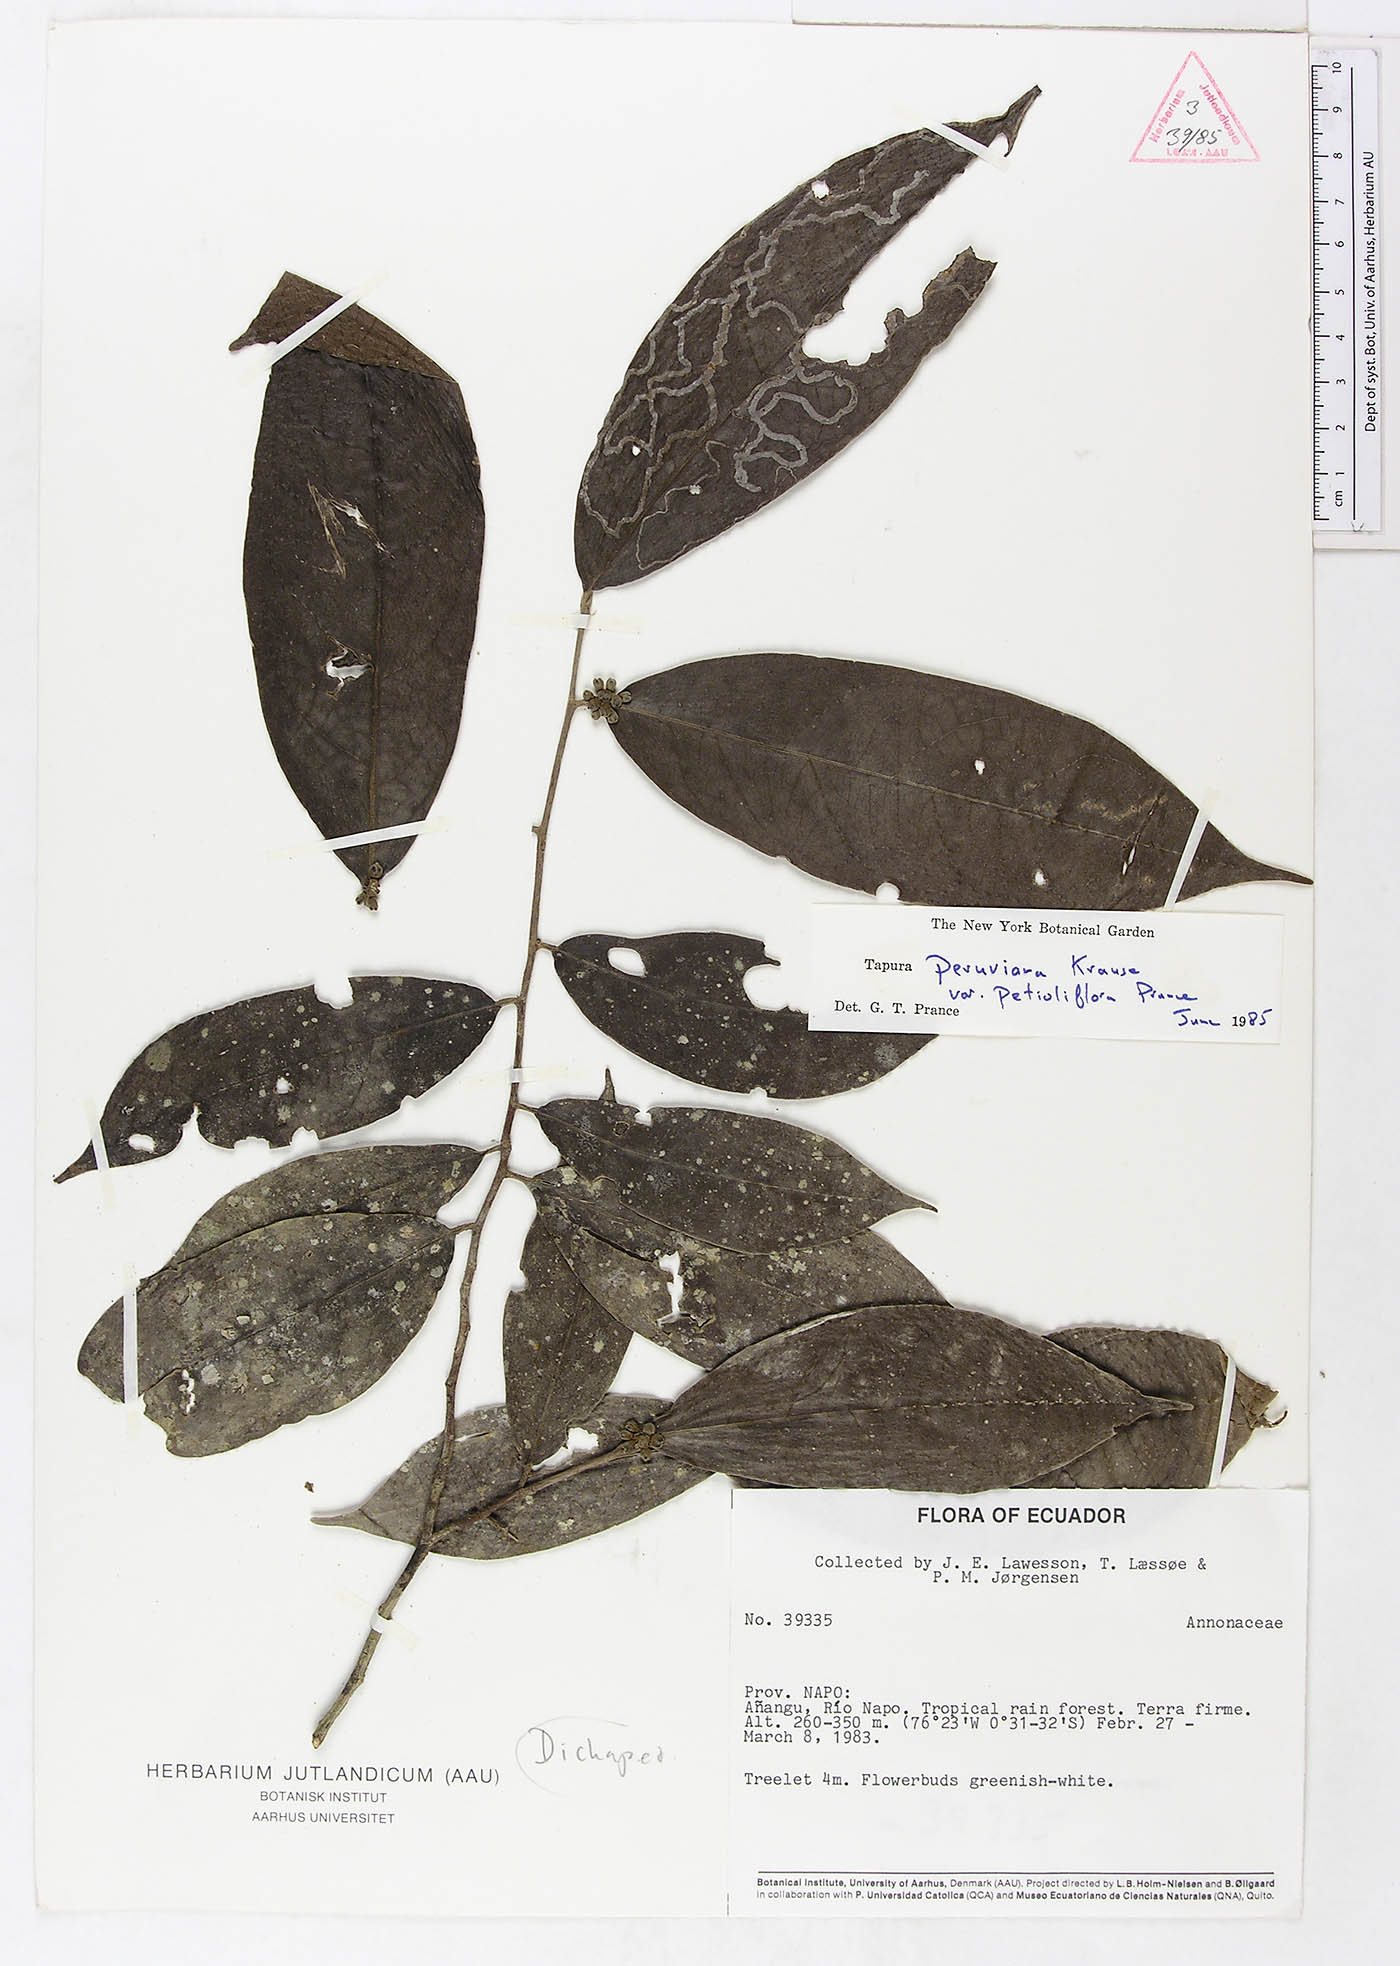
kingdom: Plantae
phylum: Tracheophyta
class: Magnoliopsida
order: Malpighiales
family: Dichapetalaceae
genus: Tapura
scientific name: Tapura peruviana
